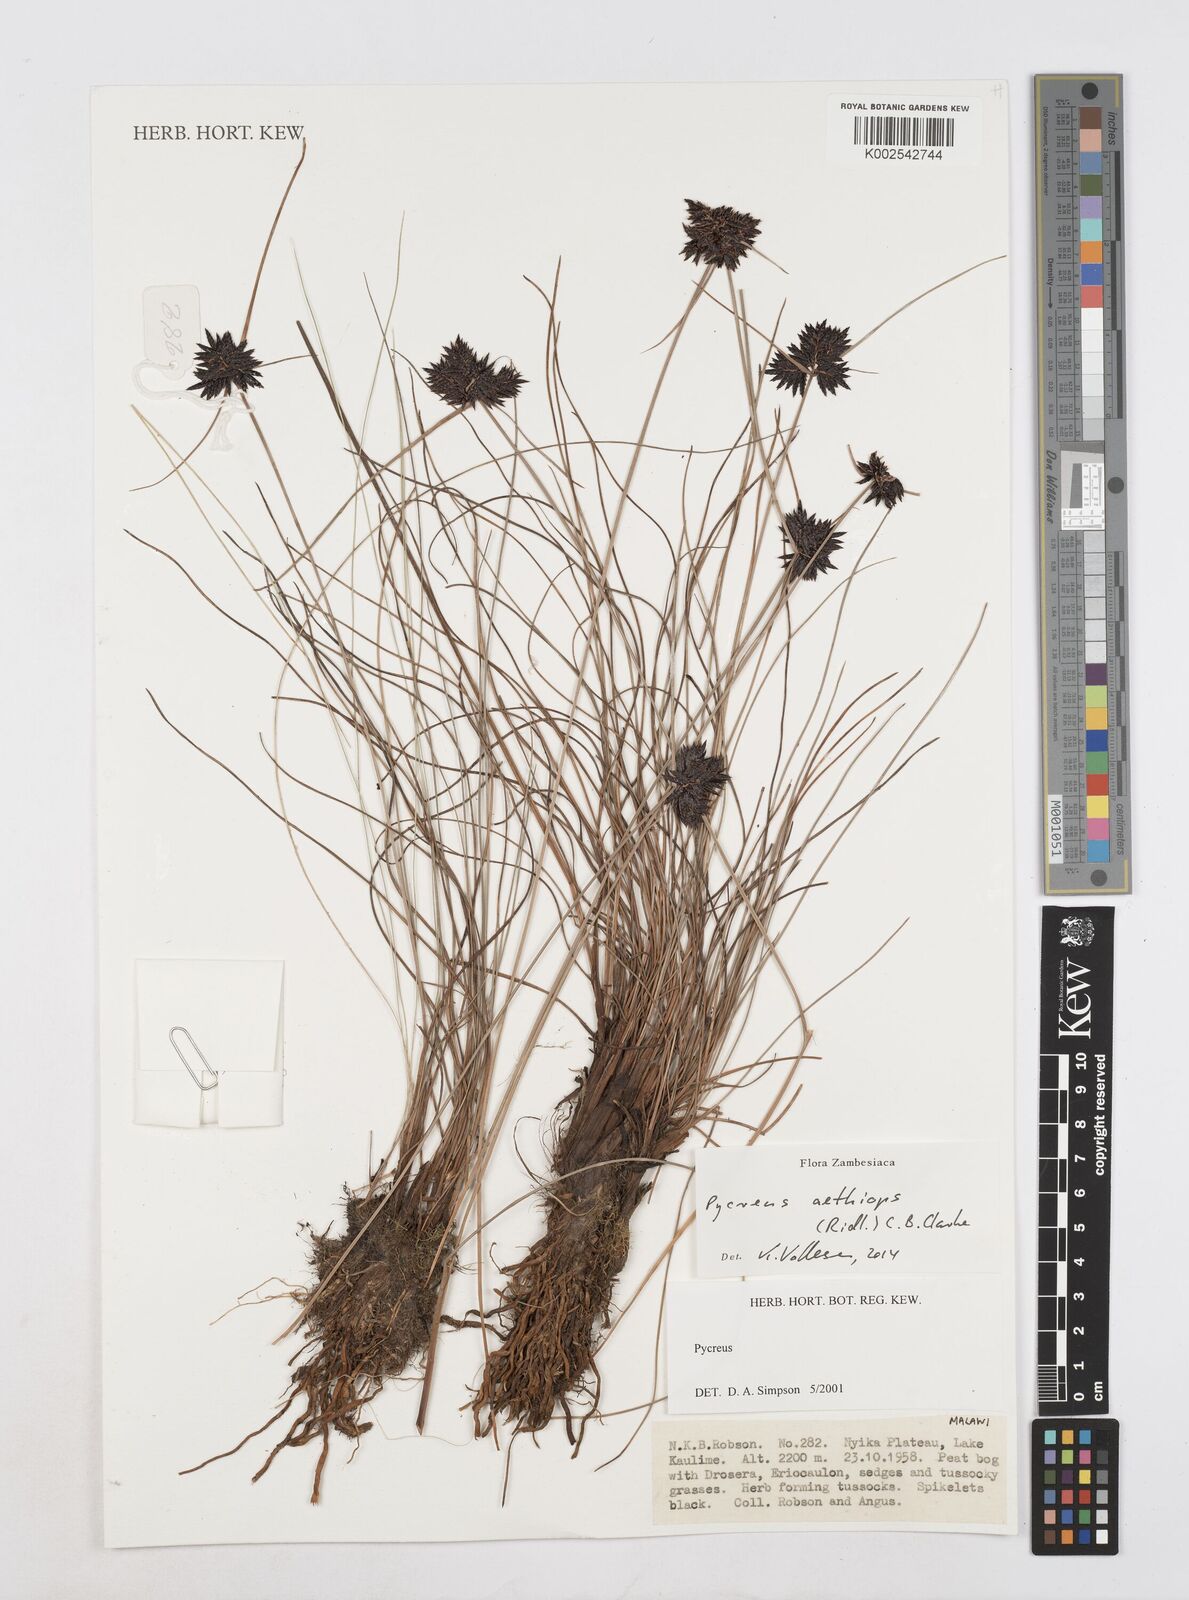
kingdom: Plantae
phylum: Tracheophyta
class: Liliopsida
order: Poales
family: Cyperaceae
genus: Cyperus
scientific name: Cyperus aethiops
